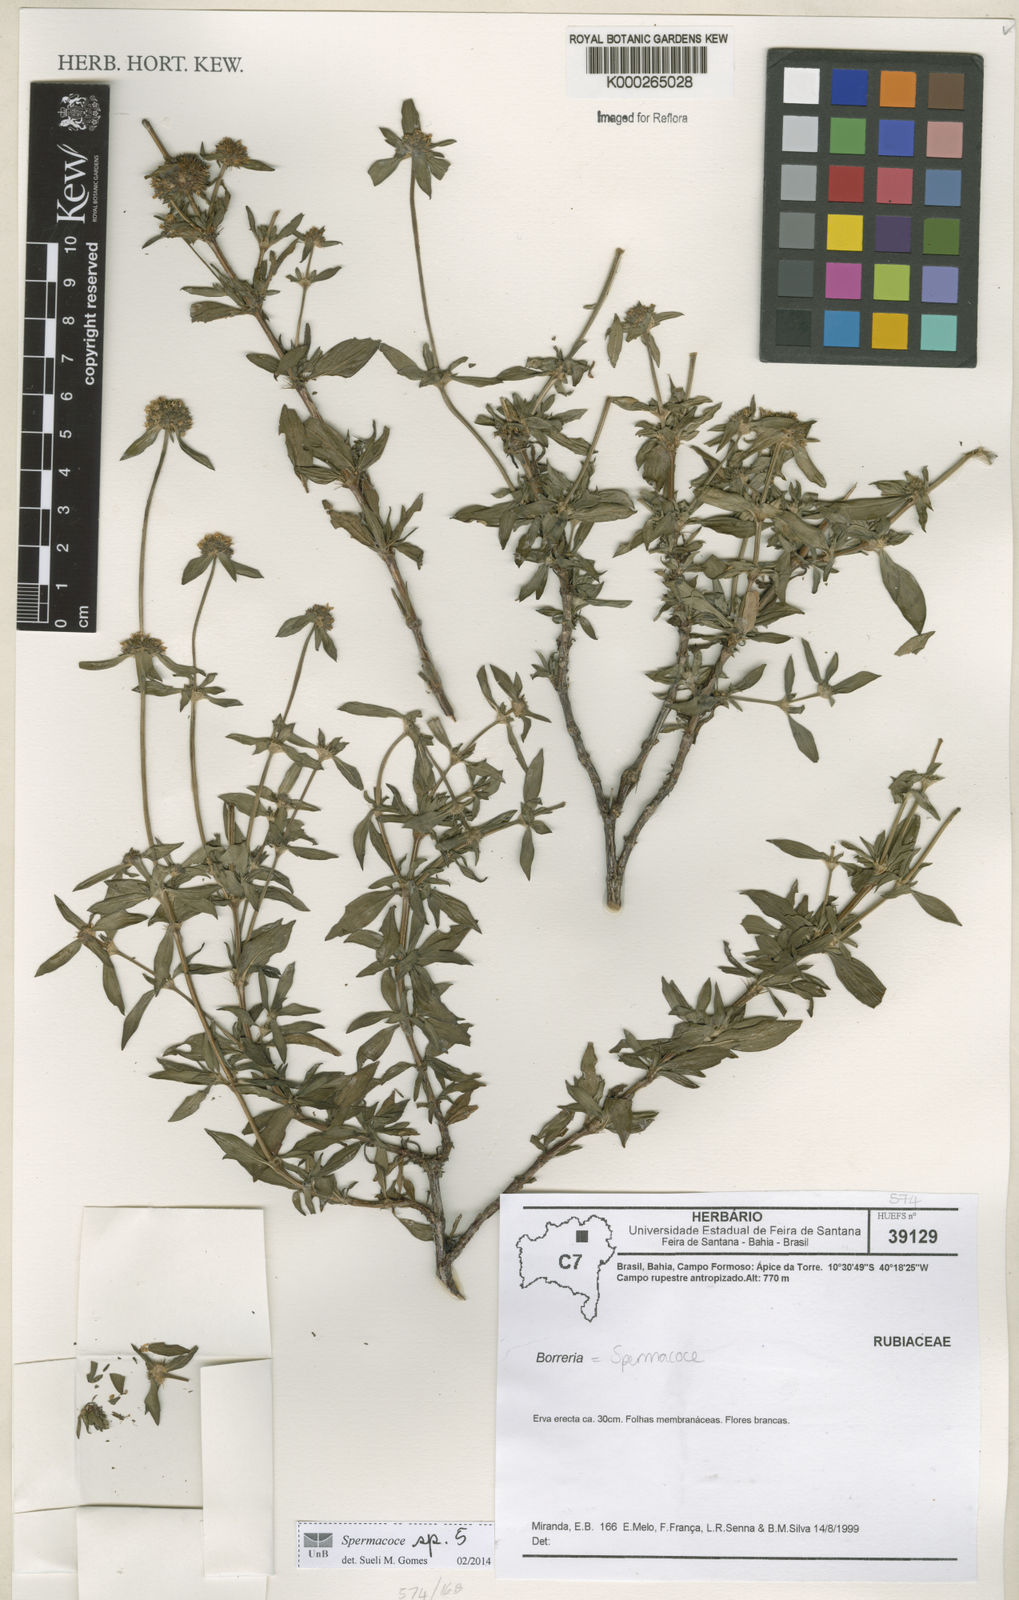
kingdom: Plantae
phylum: Tracheophyta
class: Magnoliopsida
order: Gentianales
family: Rubiaceae
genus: Spermacoce
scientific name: Spermacoce
